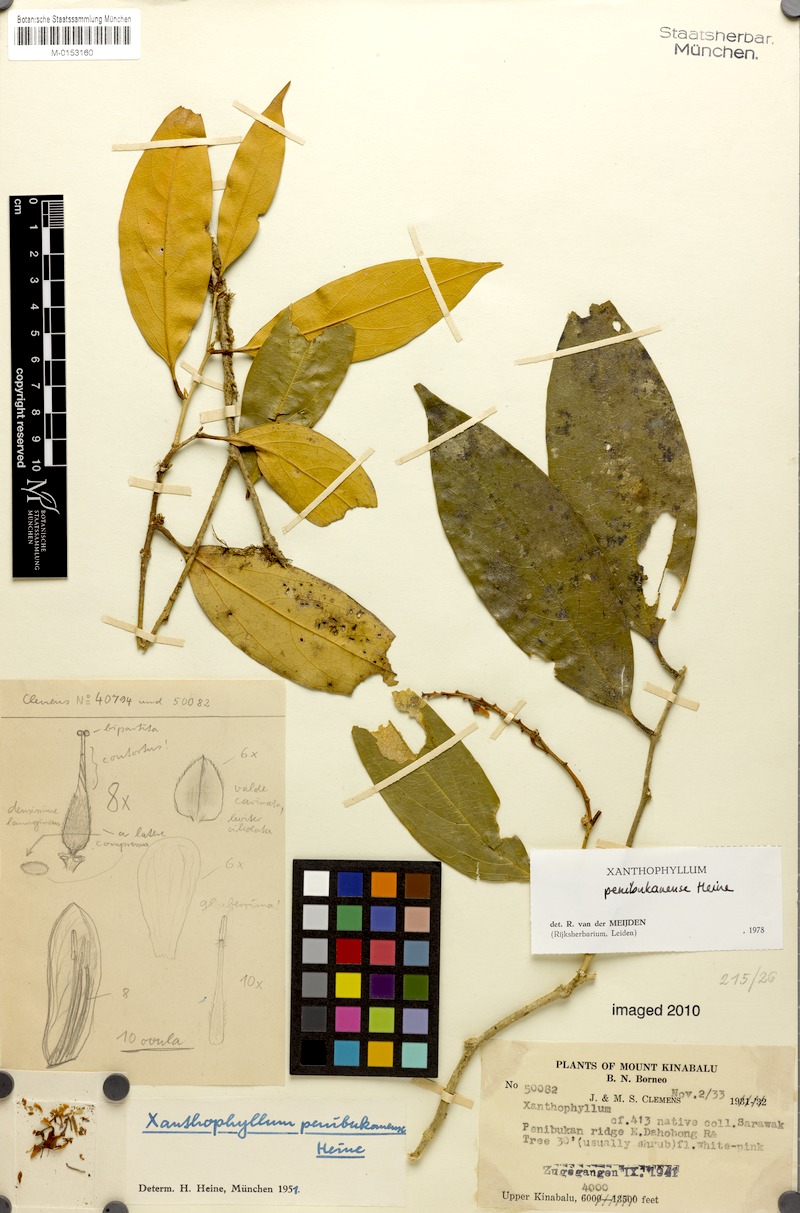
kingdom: Plantae
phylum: Tracheophyta
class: Magnoliopsida
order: Fabales
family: Polygalaceae
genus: Xanthophyllum
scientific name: Xanthophyllum penibukanense
